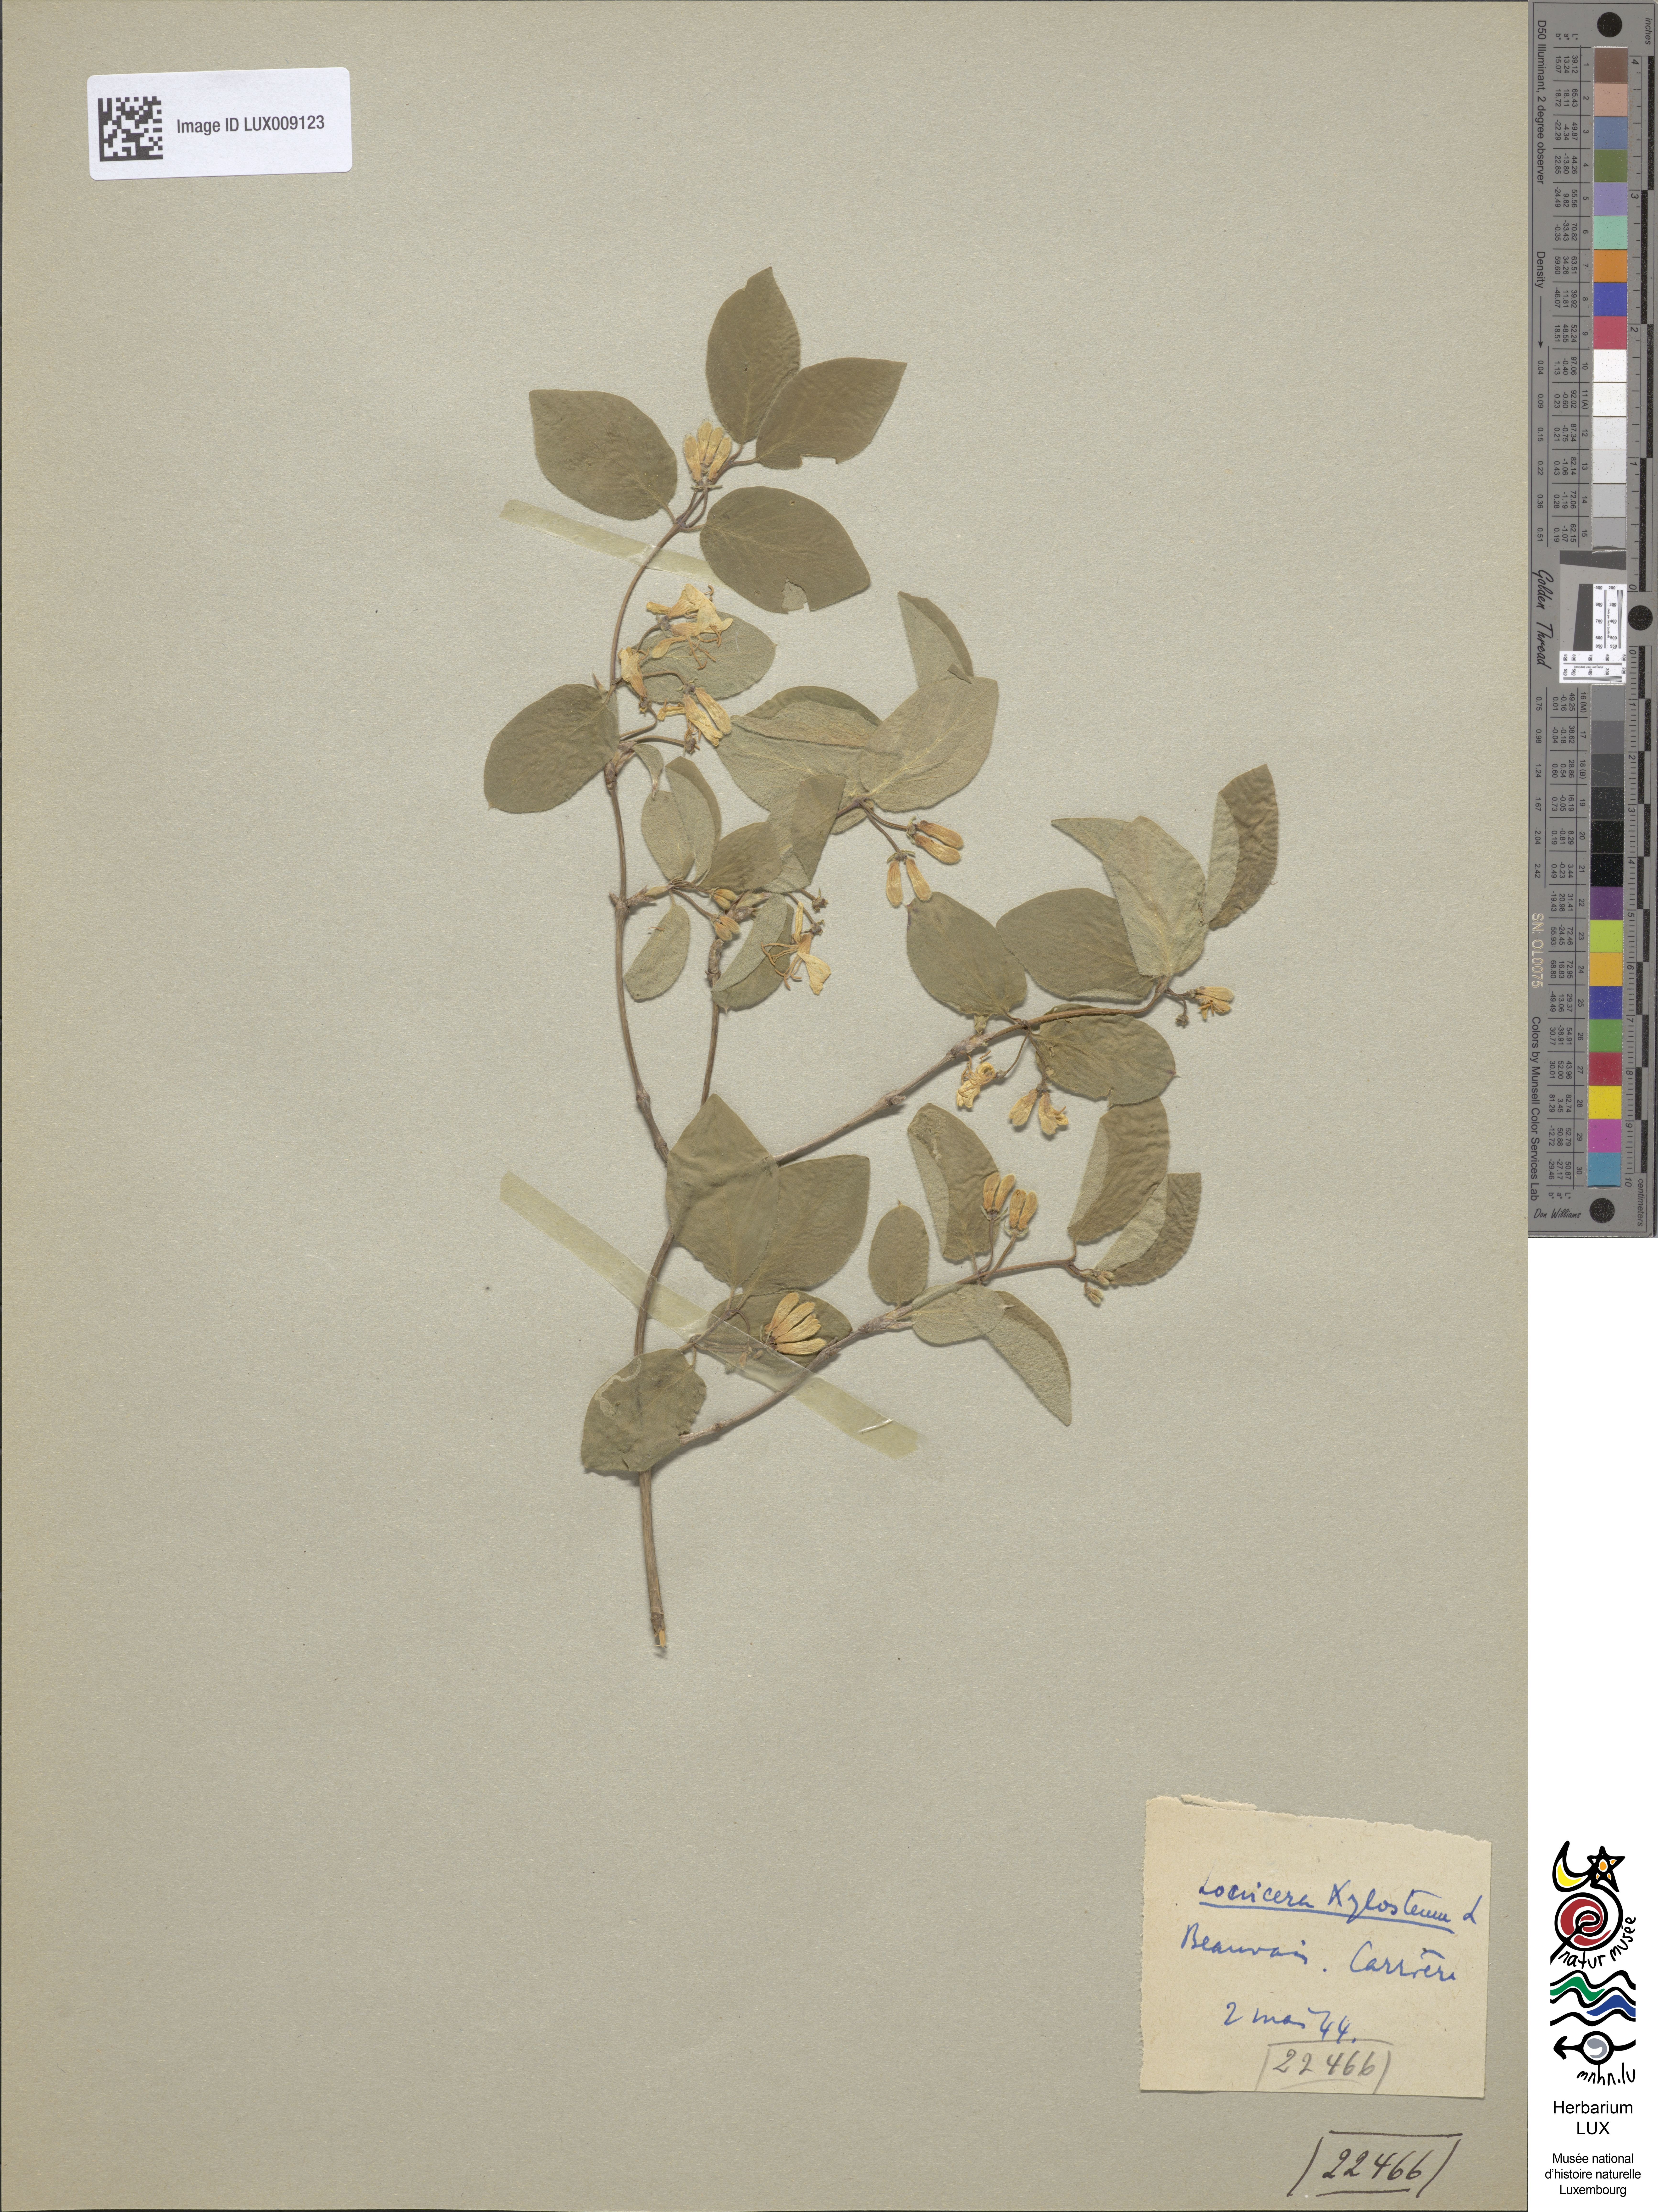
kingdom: Plantae
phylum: Tracheophyta
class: Magnoliopsida
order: Dipsacales
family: Caprifoliaceae
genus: Lonicera
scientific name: Lonicera xylosteum
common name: Fly honeysuckle
